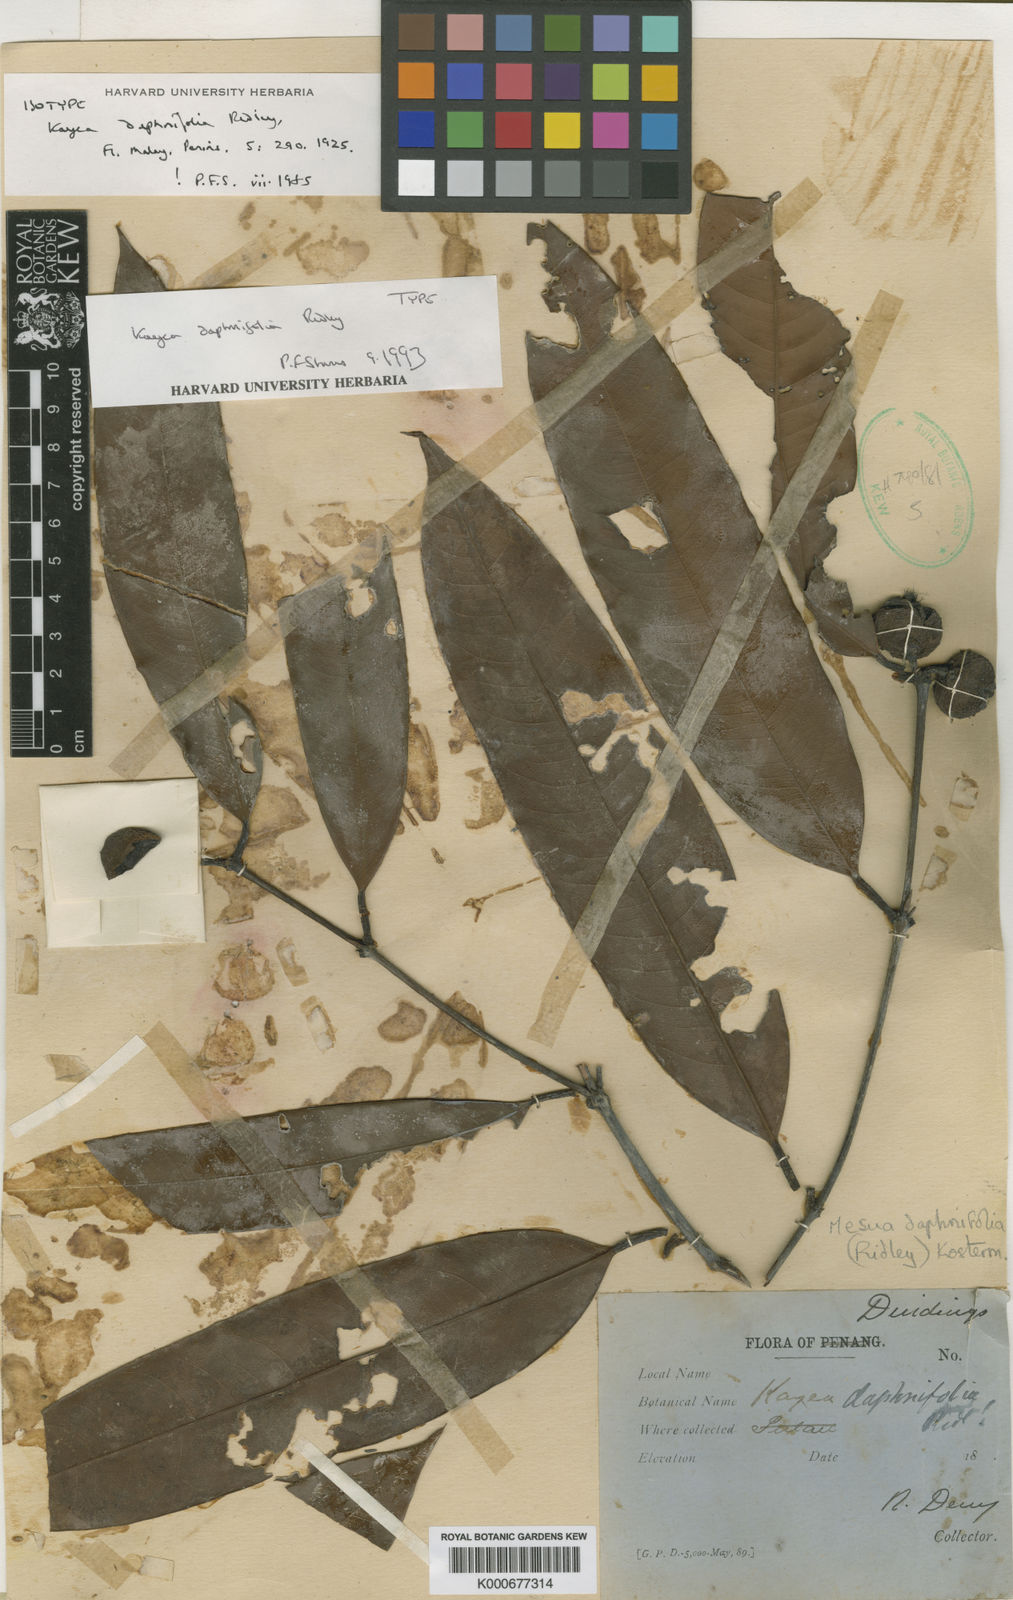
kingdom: Plantae
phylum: Tracheophyta
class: Magnoliopsida
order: Malpighiales
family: Calophyllaceae
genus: Kayea
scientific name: Kayea daphnifolia
